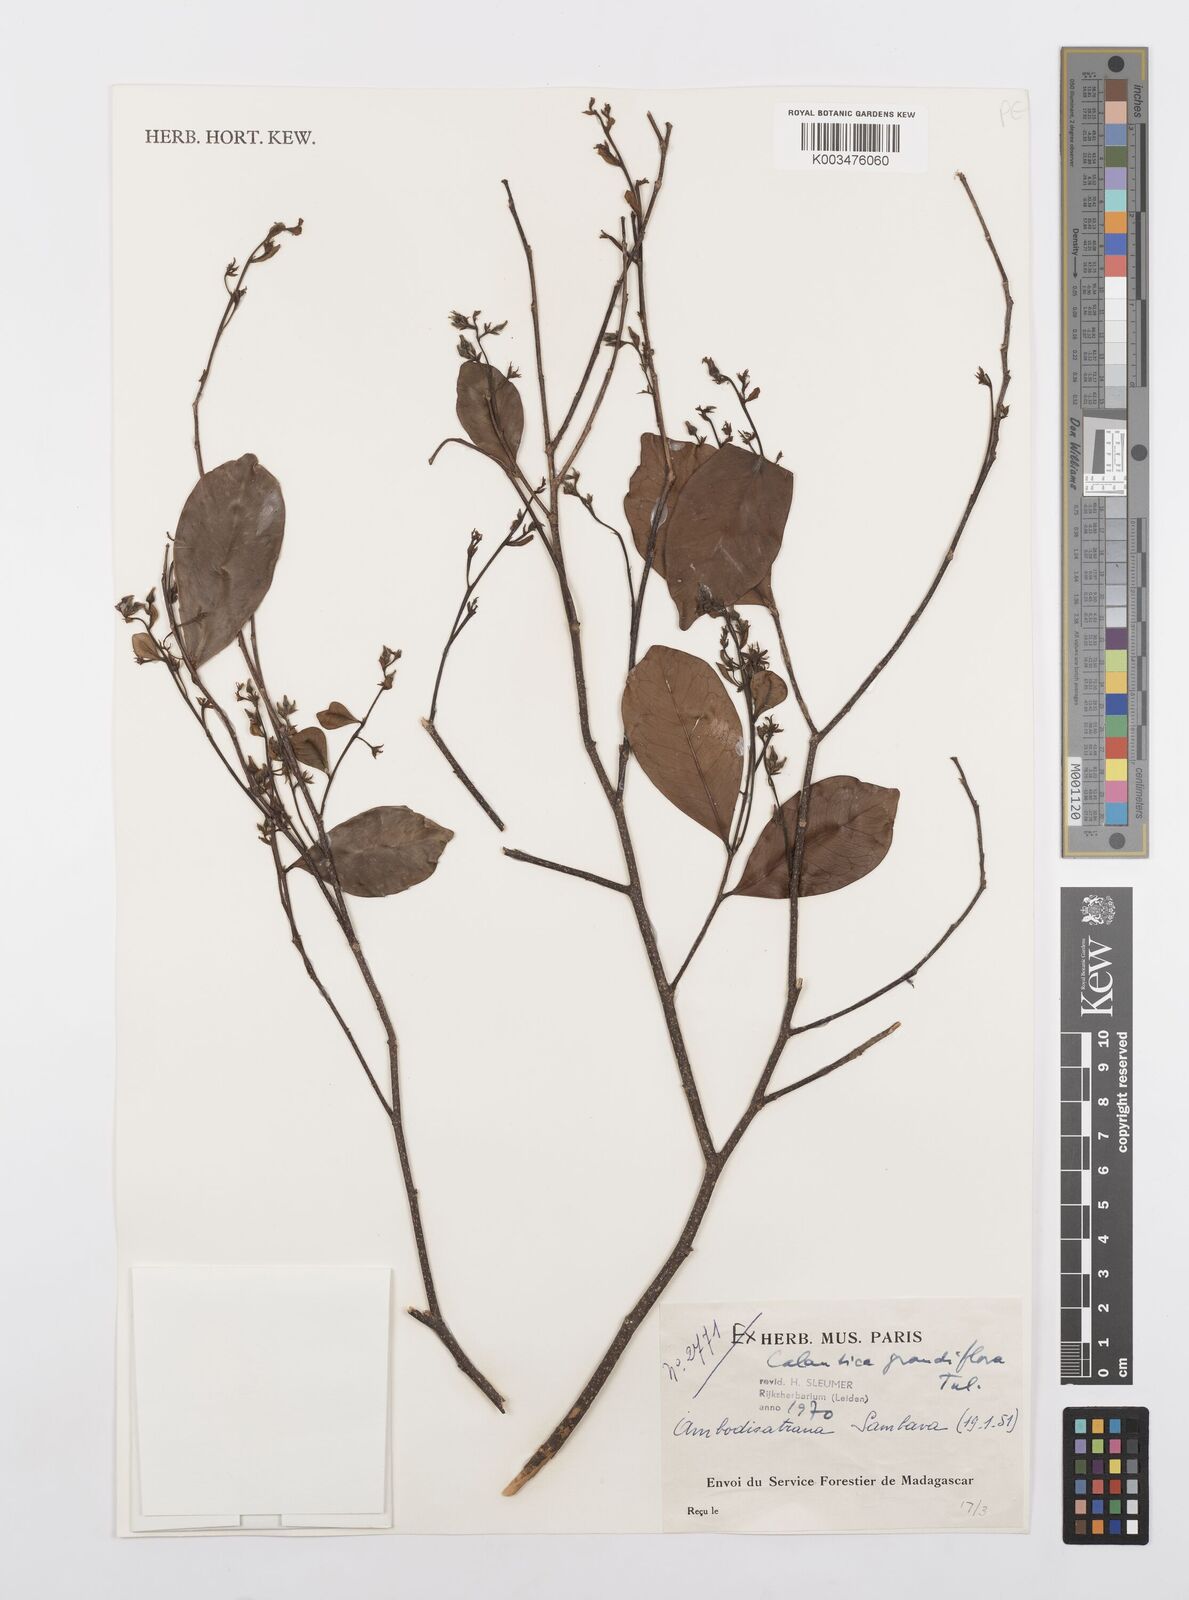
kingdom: Plantae
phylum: Tracheophyta
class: Magnoliopsida
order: Malpighiales
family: Salicaceae
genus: Calantica
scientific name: Calantica grandiflora
